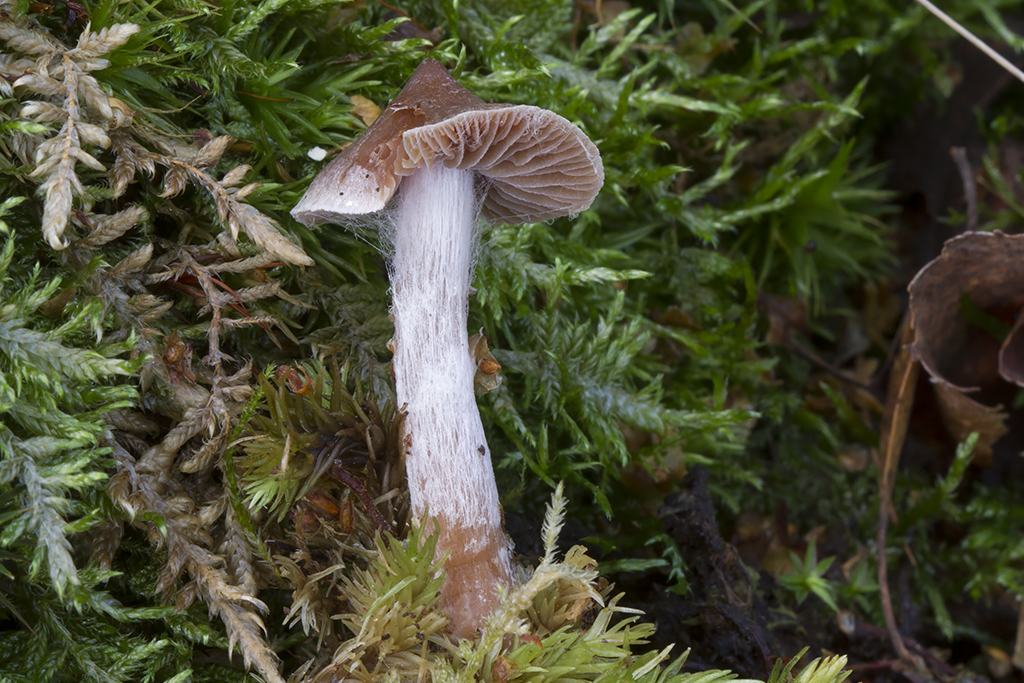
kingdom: Fungi
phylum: Basidiomycota
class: Agaricomycetes
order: Agaricales
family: Cortinariaceae
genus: Cortinarius
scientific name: Cortinarius comptulus
